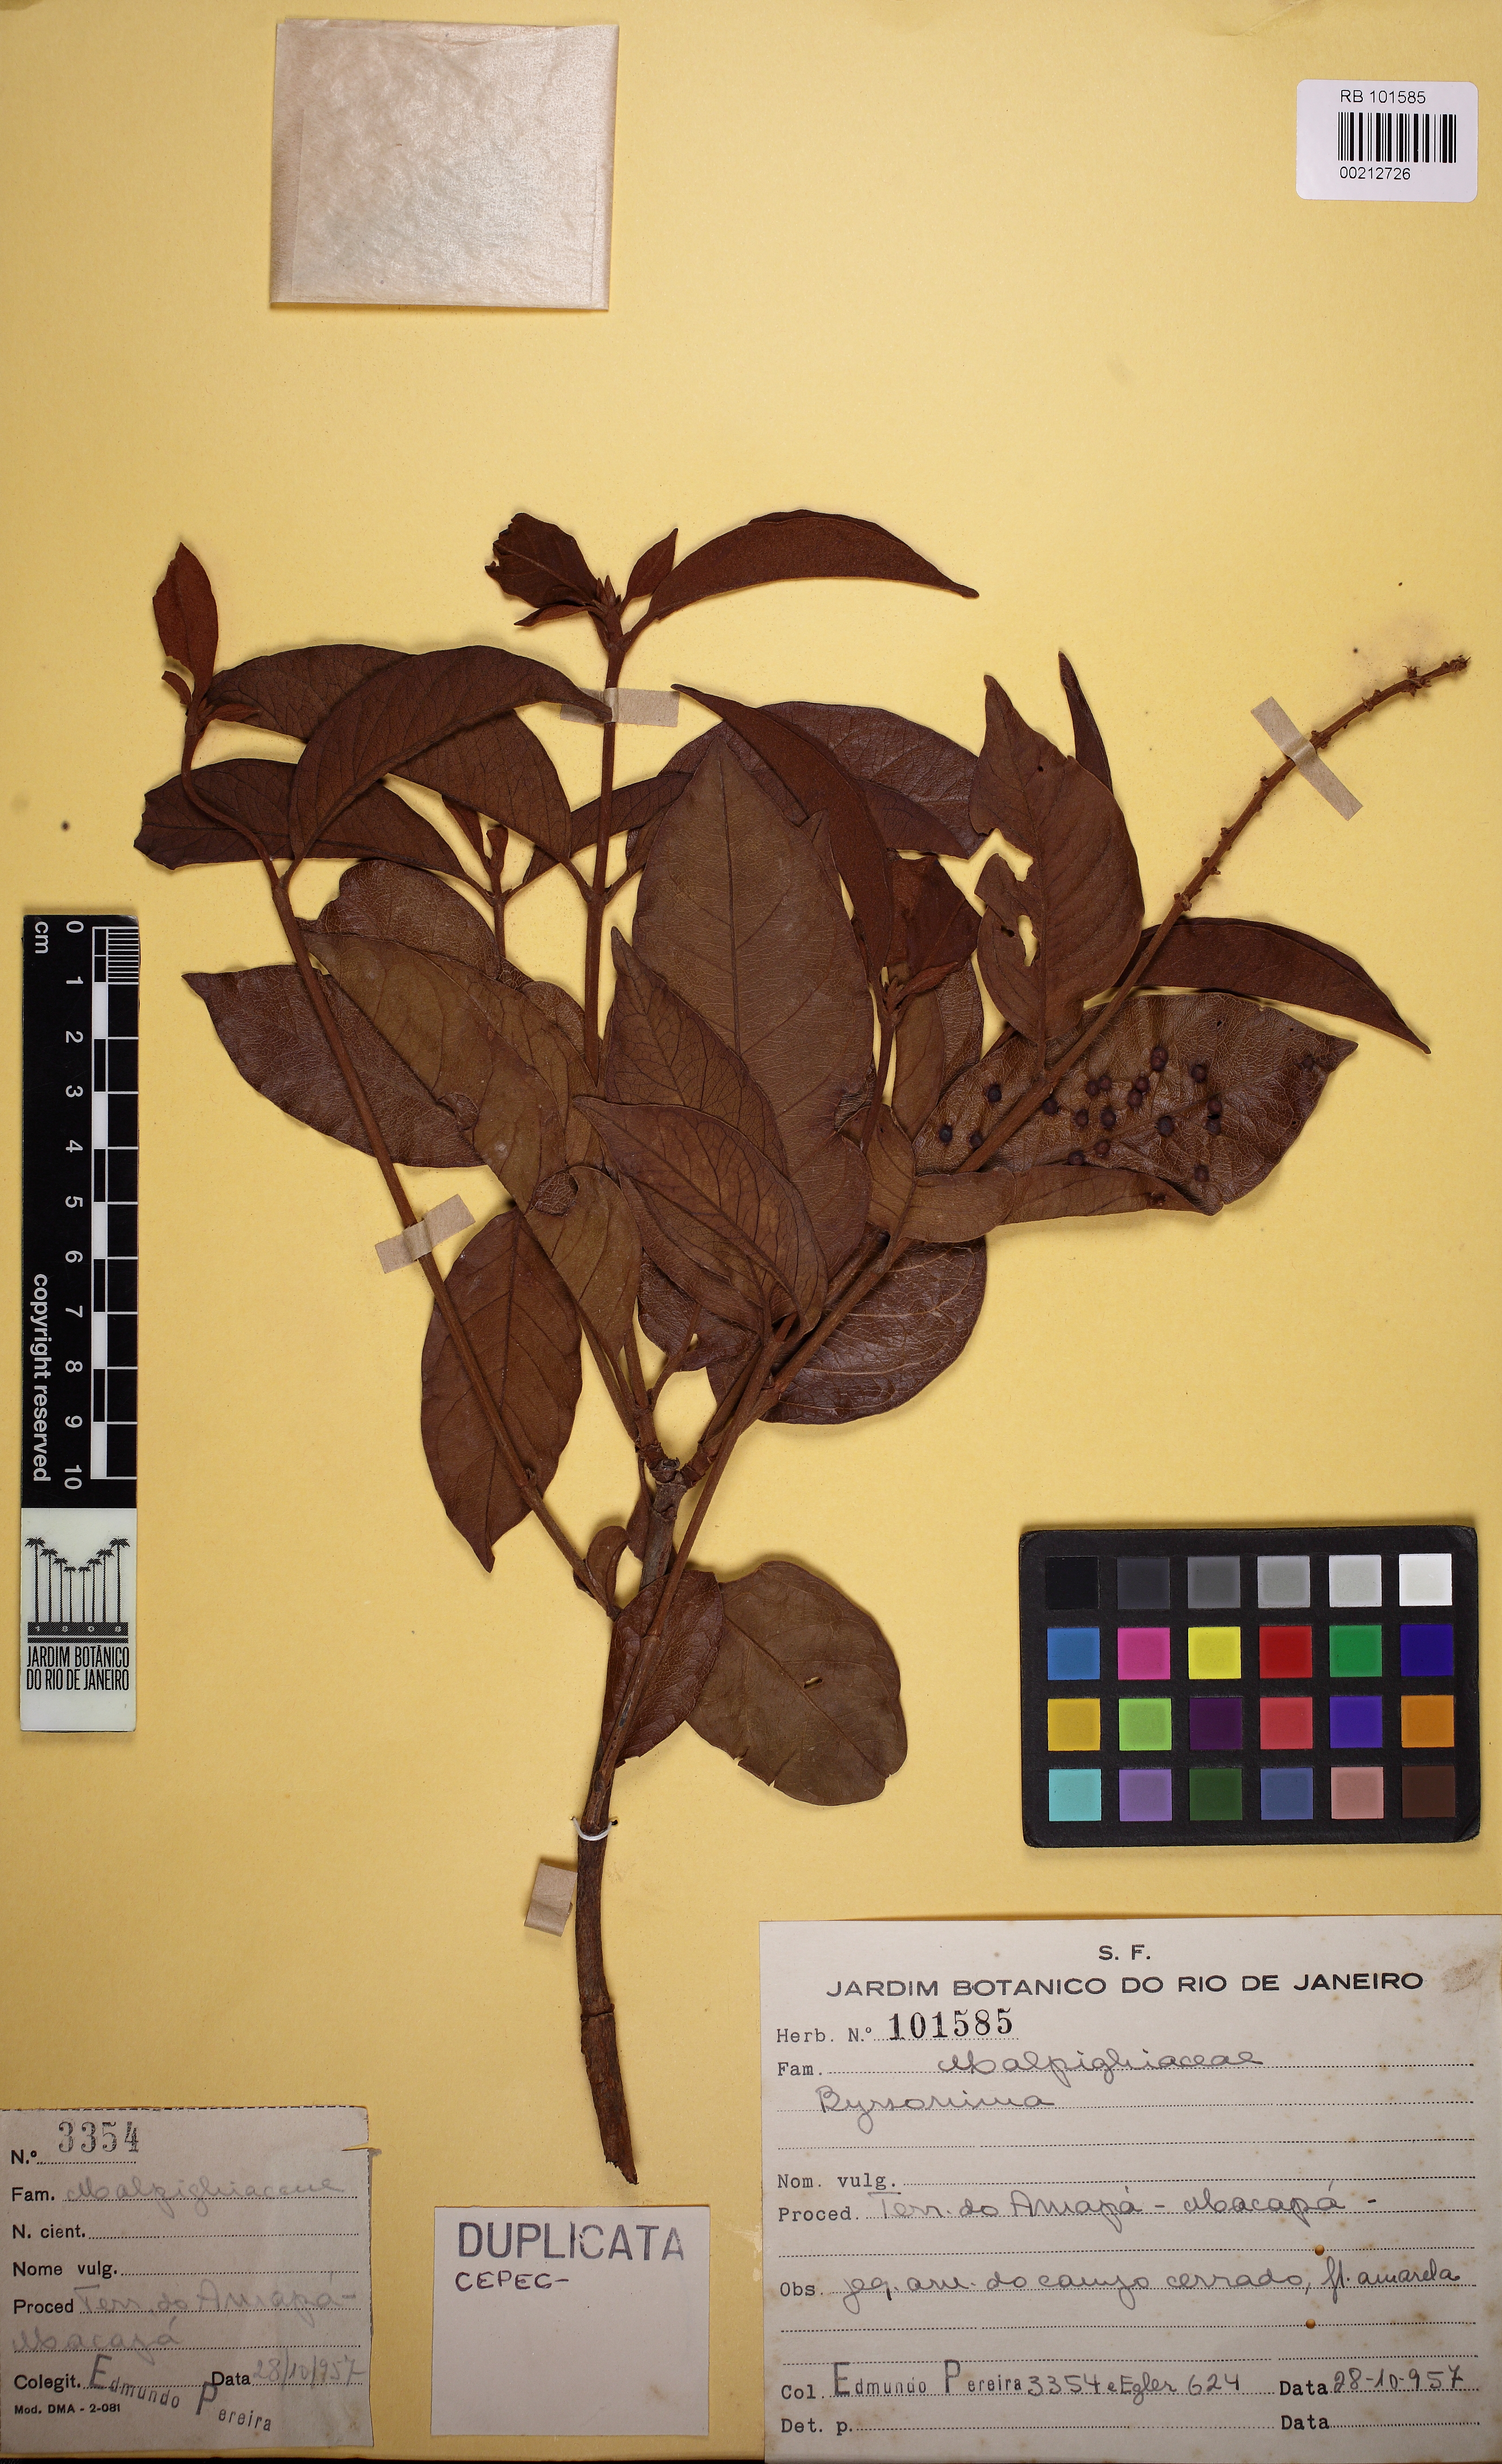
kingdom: Plantae
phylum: Tracheophyta
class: Magnoliopsida
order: Malpighiales
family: Malpighiaceae
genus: Byrsonima
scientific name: Byrsonima
